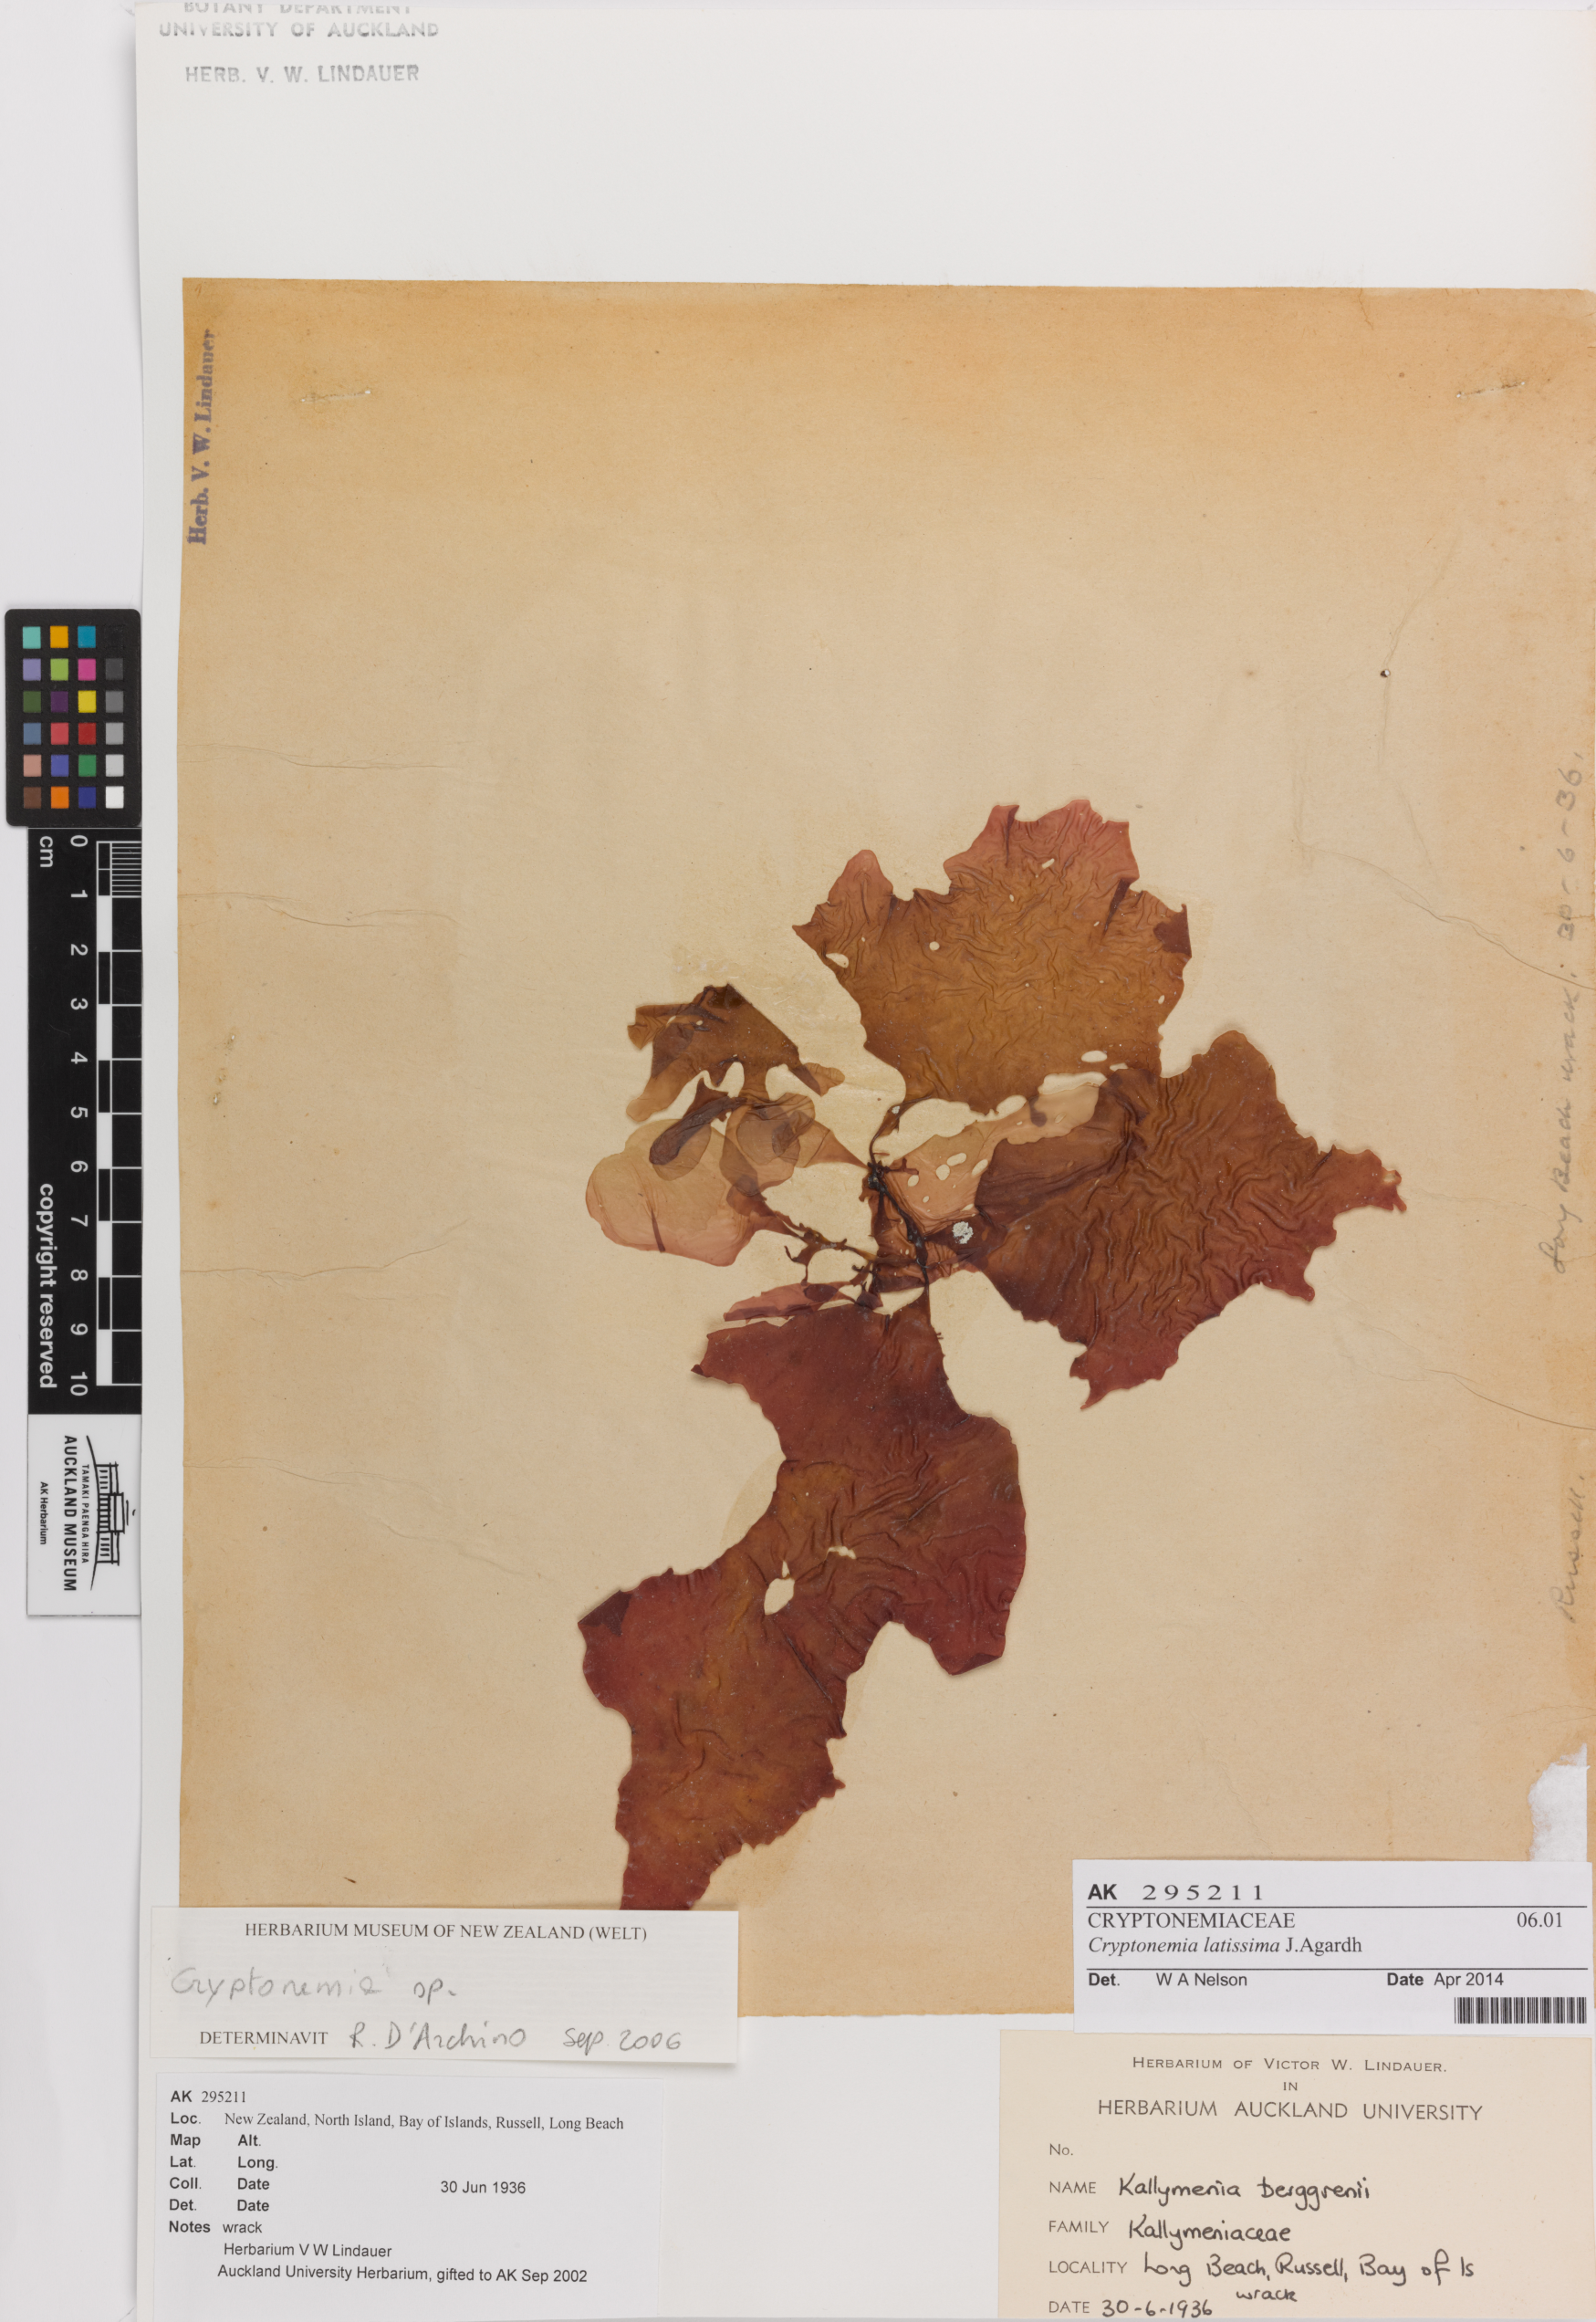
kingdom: Plantae
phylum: Rhodophyta
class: Florideophyceae
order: Halymeniales
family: Halymeniaceae
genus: Cryptonemia
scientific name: Cryptonemia latissima
